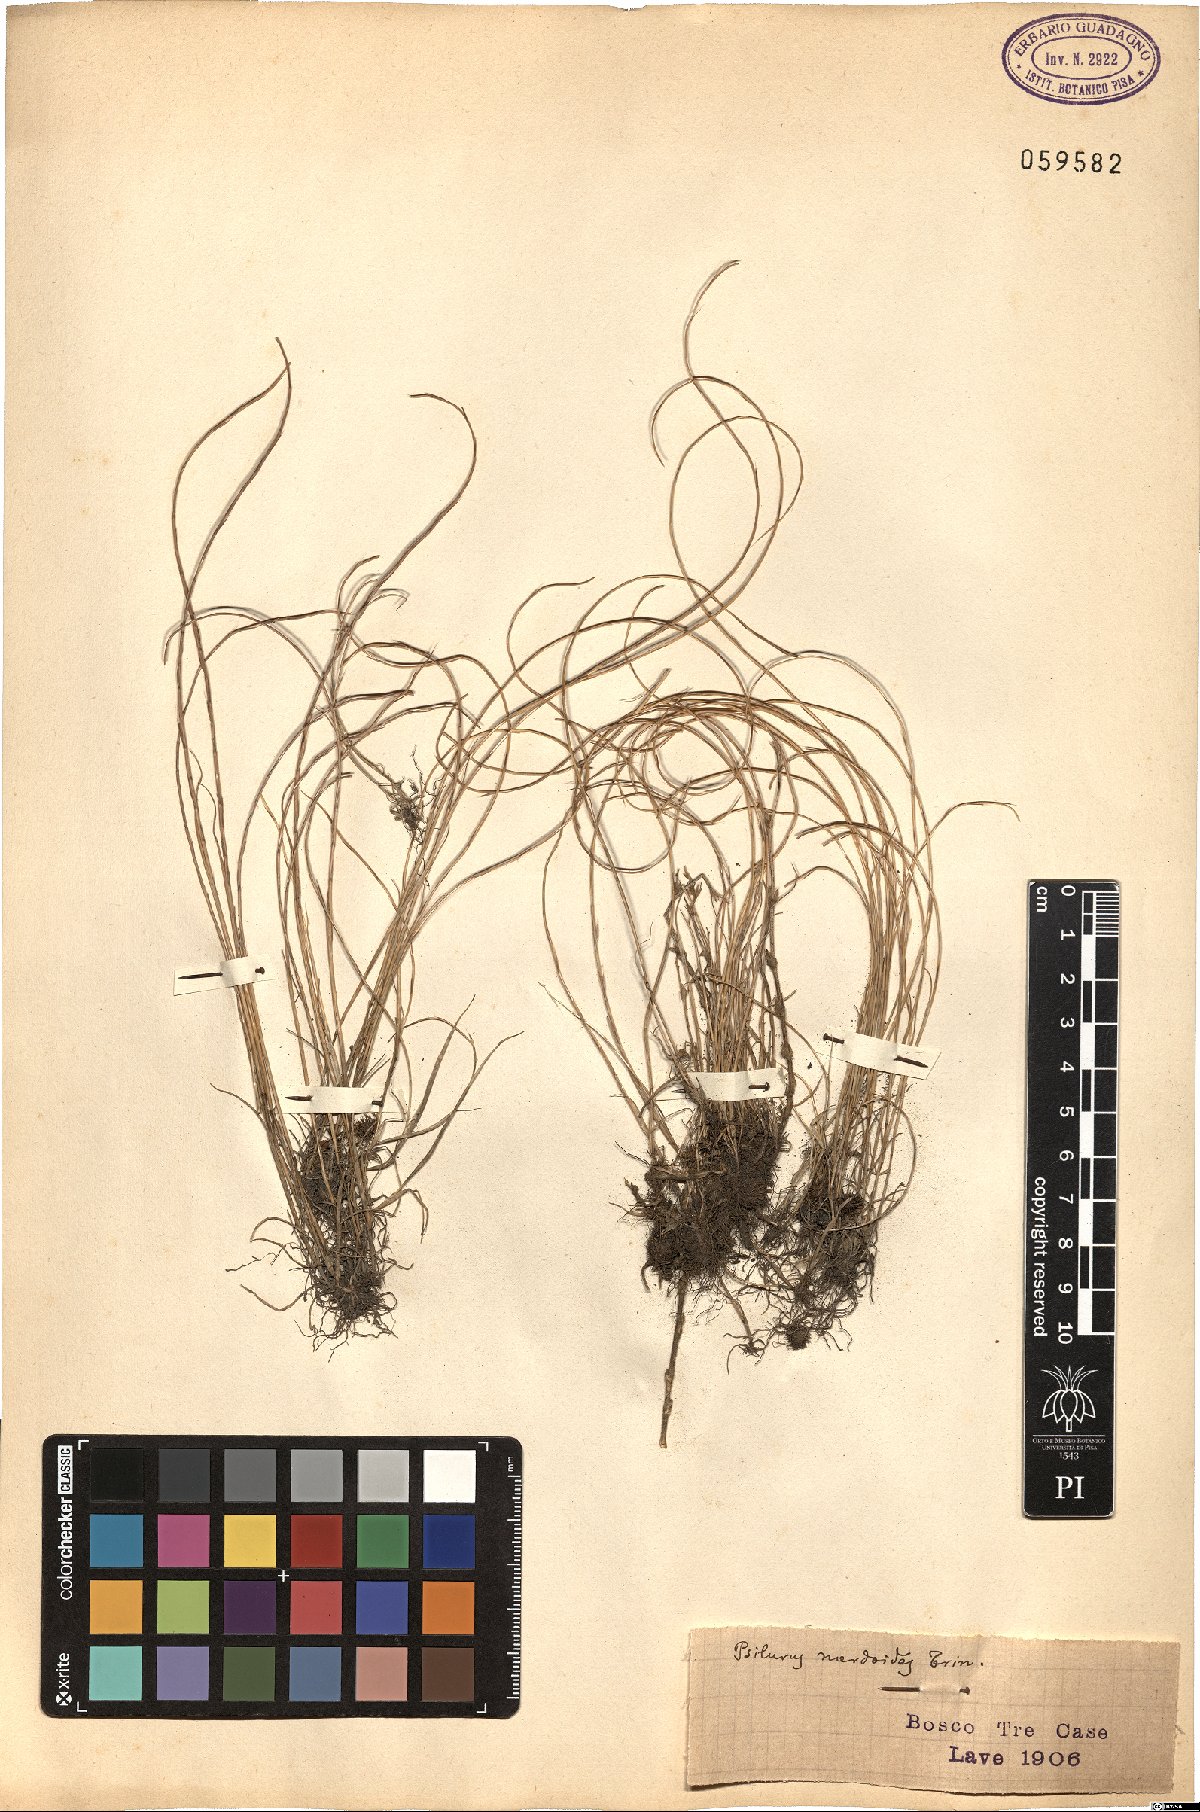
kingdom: Plantae
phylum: Tracheophyta
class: Liliopsida
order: Poales
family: Poaceae
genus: Festuca
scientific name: Festuca incurva
